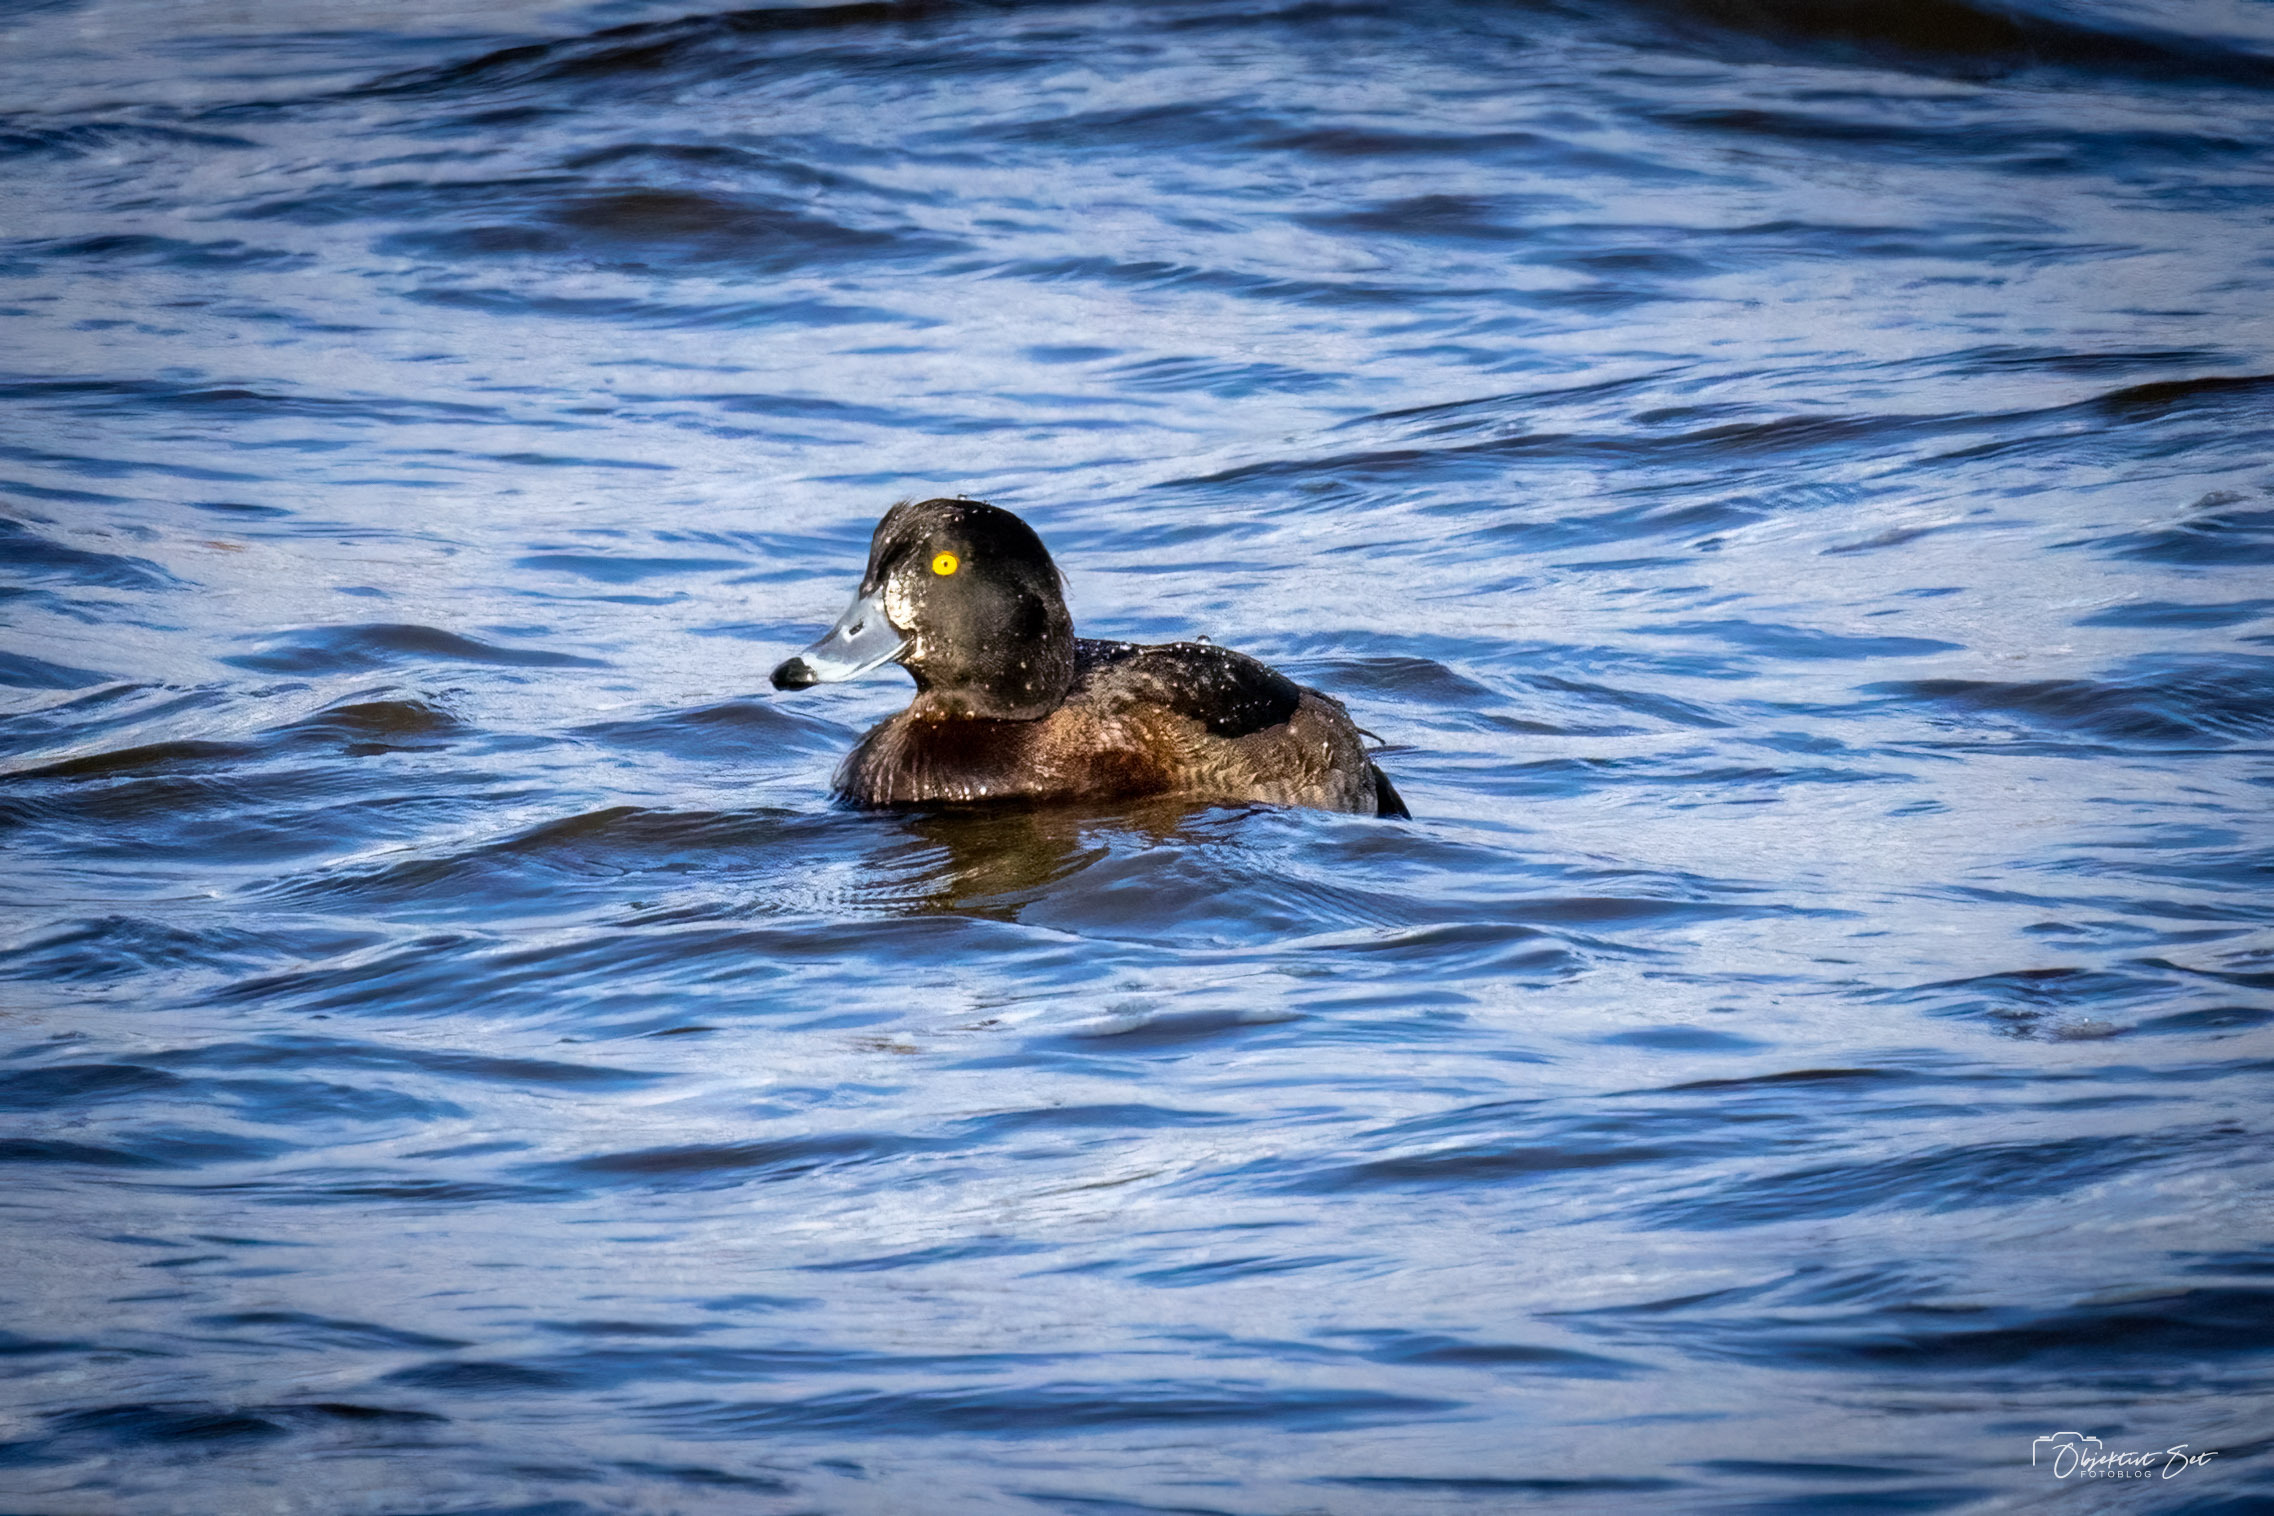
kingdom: Animalia
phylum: Chordata
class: Aves
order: Anseriformes
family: Anatidae
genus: Aythya
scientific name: Aythya fuligula
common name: Troldand
